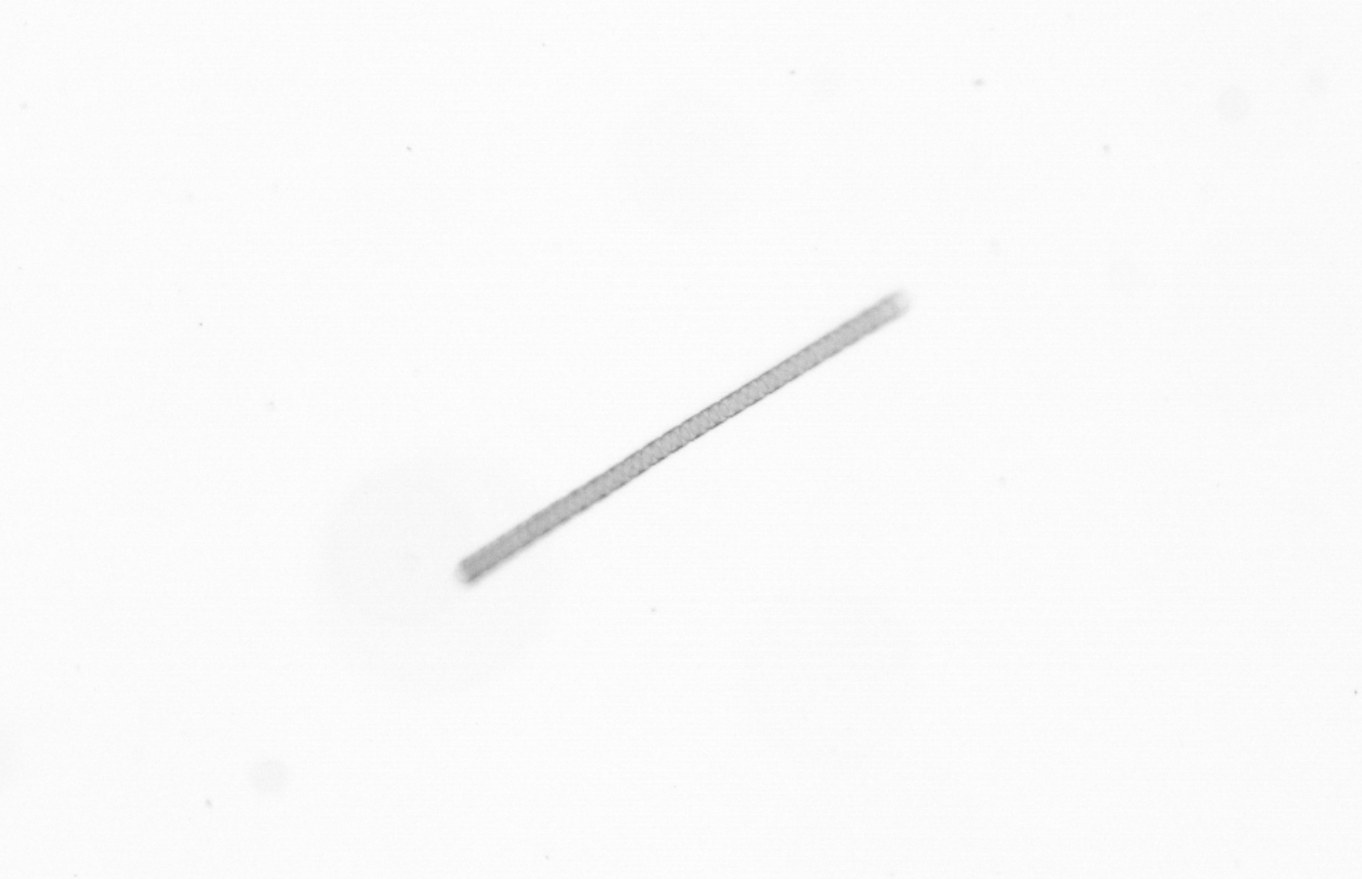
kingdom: Chromista
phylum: Ochrophyta
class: Bacillariophyceae
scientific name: Bacillariophyceae
